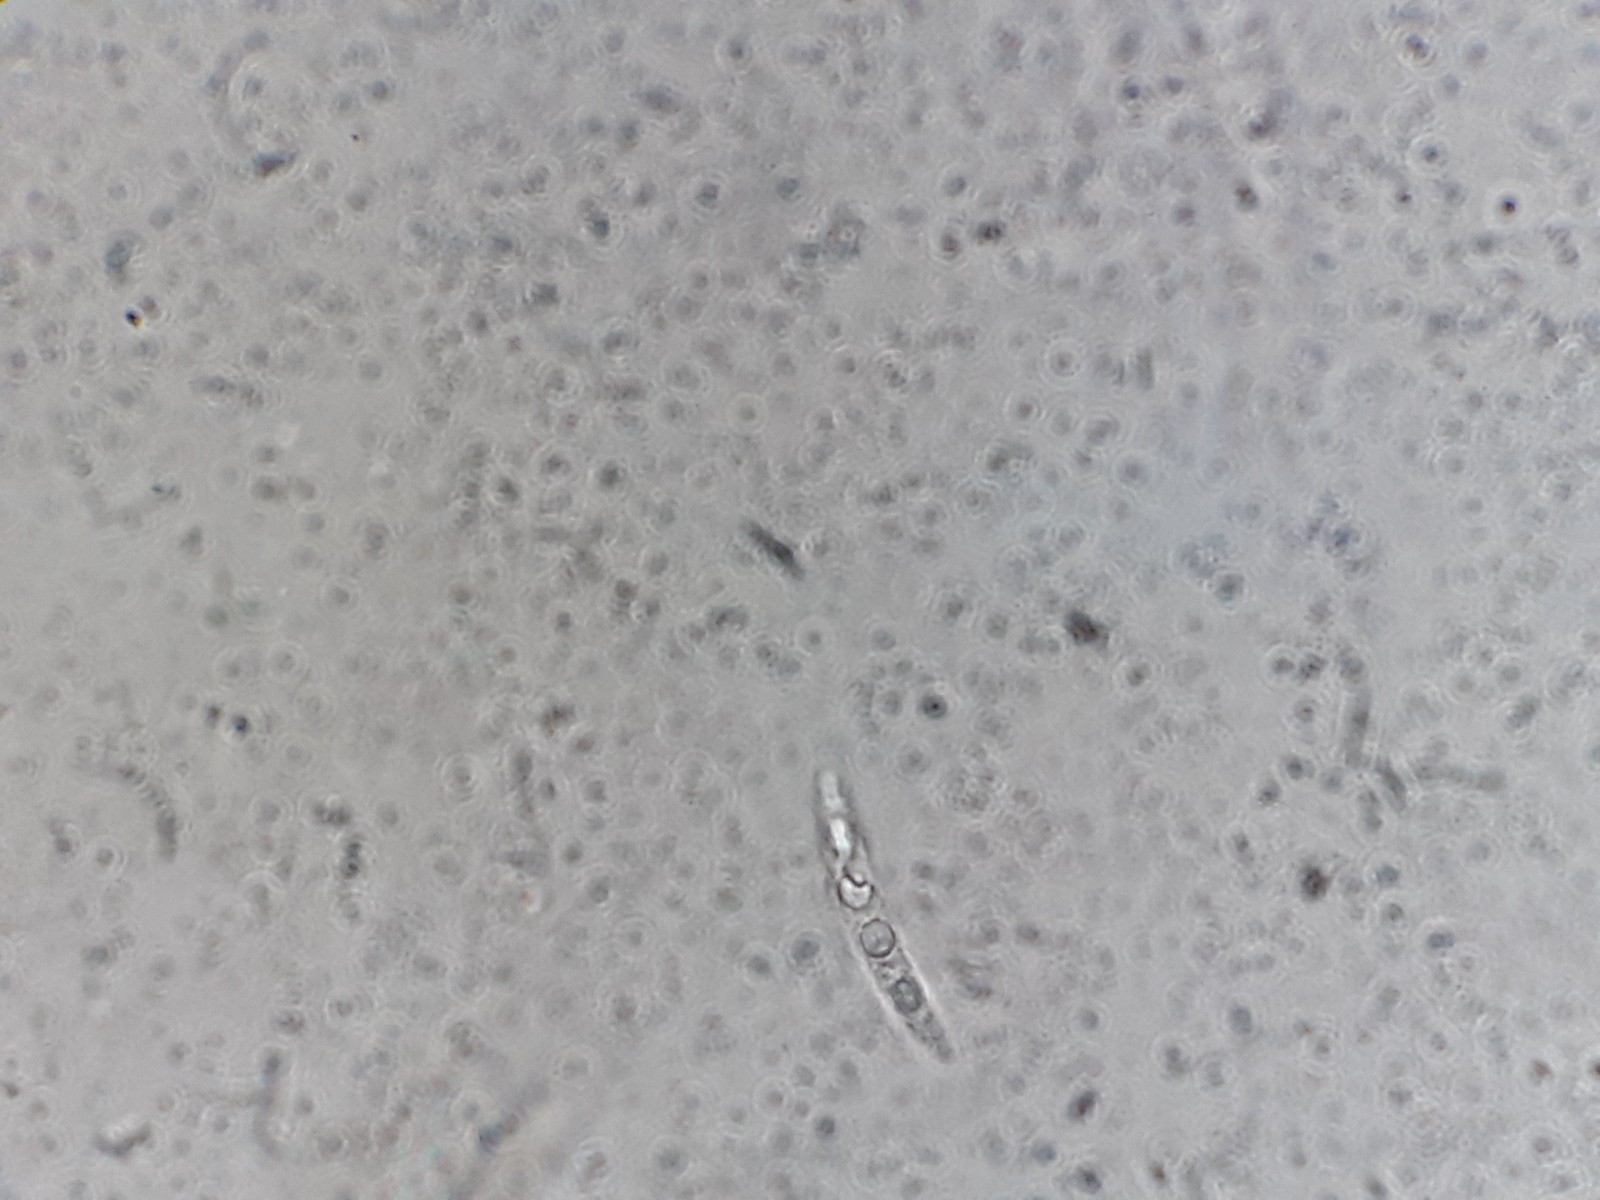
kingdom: Fungi
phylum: Ascomycota
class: Dothideomycetes
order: Pleosporales
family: Phaeosphaeriaceae
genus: Phaeosphaeria
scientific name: Phaeosphaeria sowerbyi
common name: kål-kulkegle
